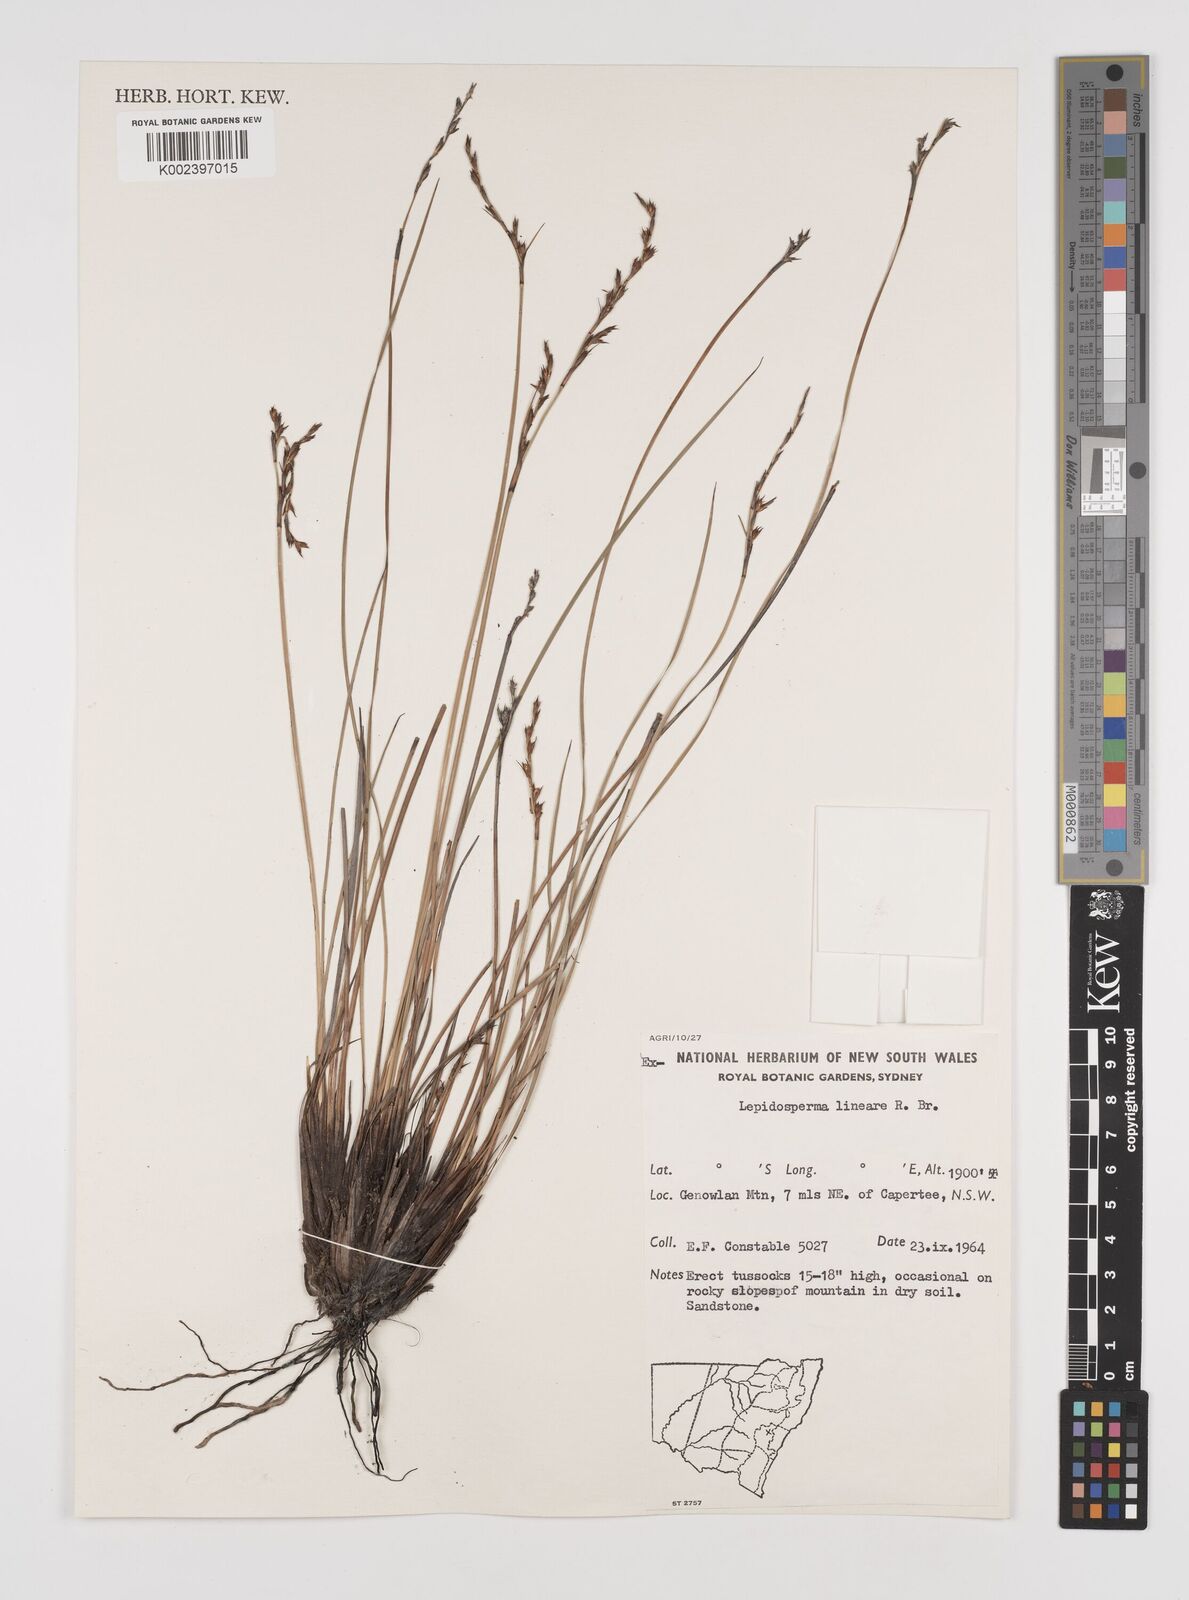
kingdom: Plantae
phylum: Tracheophyta
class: Liliopsida
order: Poales
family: Cyperaceae
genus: Lepidosperma
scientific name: Lepidosperma lineare
